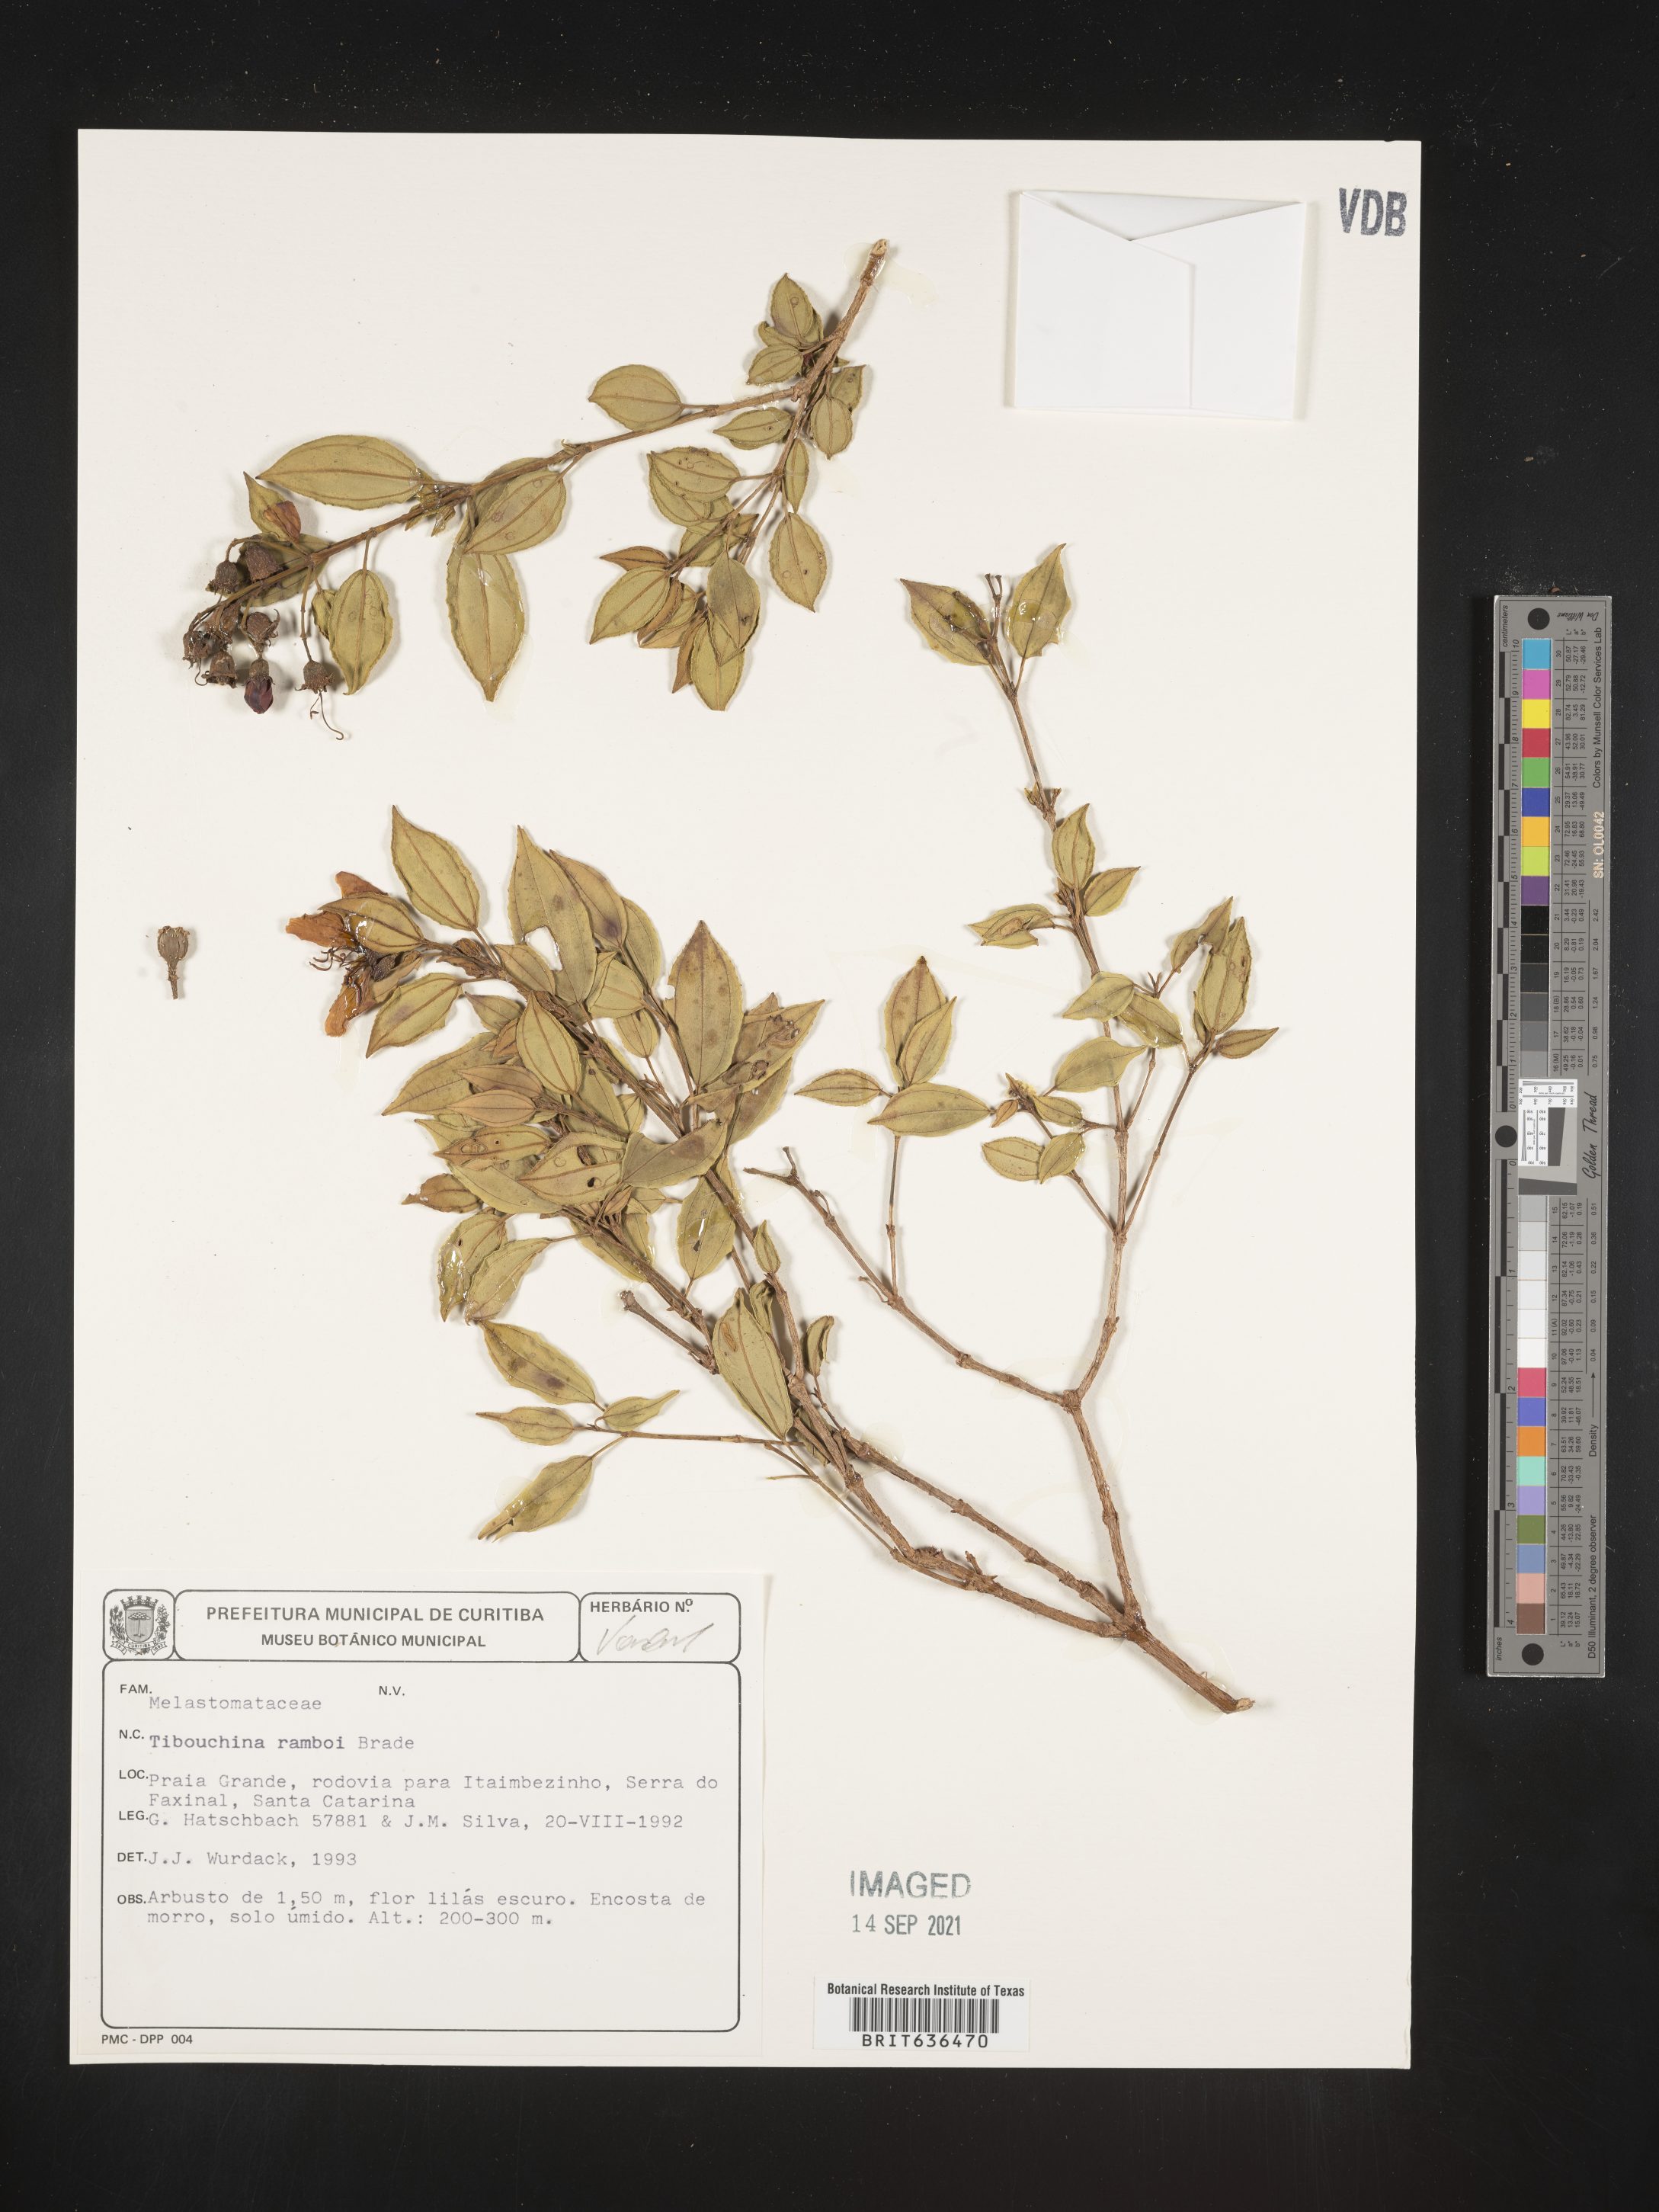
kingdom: Plantae
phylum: Tracheophyta
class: Magnoliopsida
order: Myrtales
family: Melastomataceae
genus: Tibouchina
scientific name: Tibouchina
